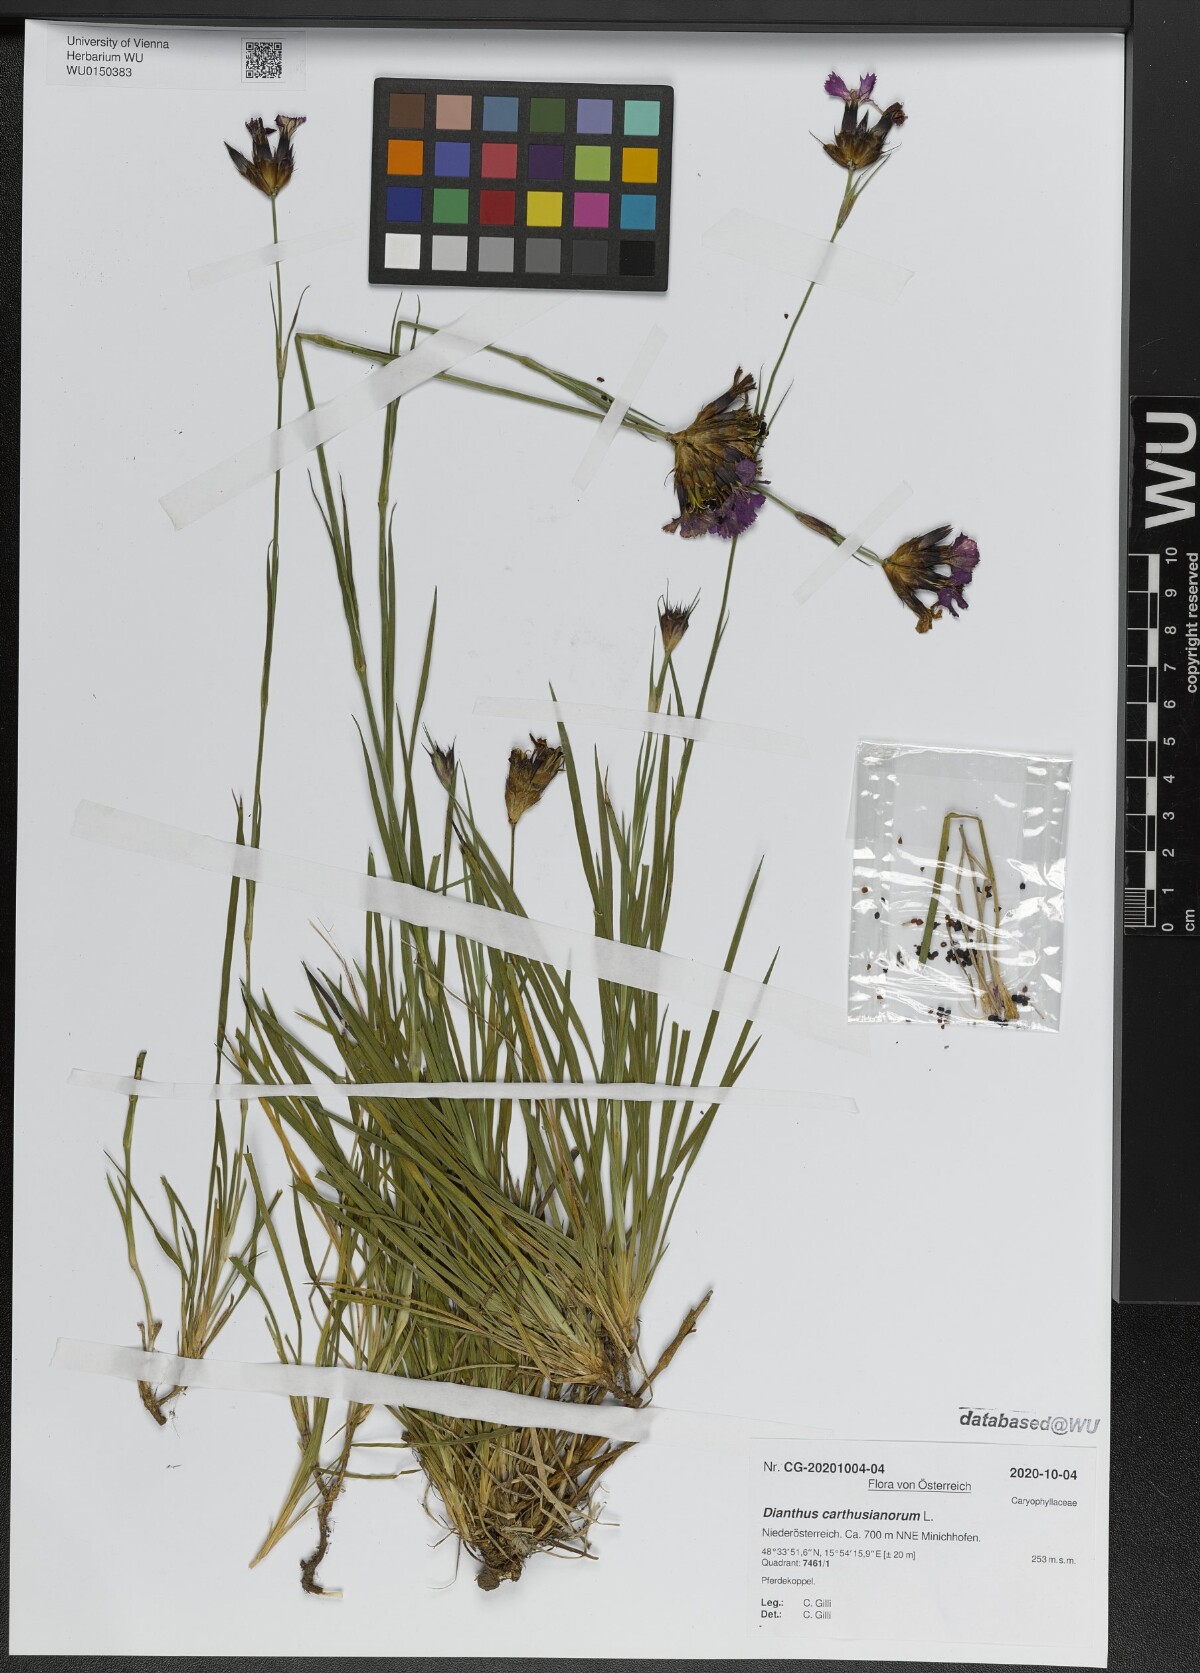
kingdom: Plantae
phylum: Tracheophyta
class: Magnoliopsida
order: Caryophyllales
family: Caryophyllaceae
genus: Dianthus
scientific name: Dianthus carthusianorum
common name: Carthusian pink
